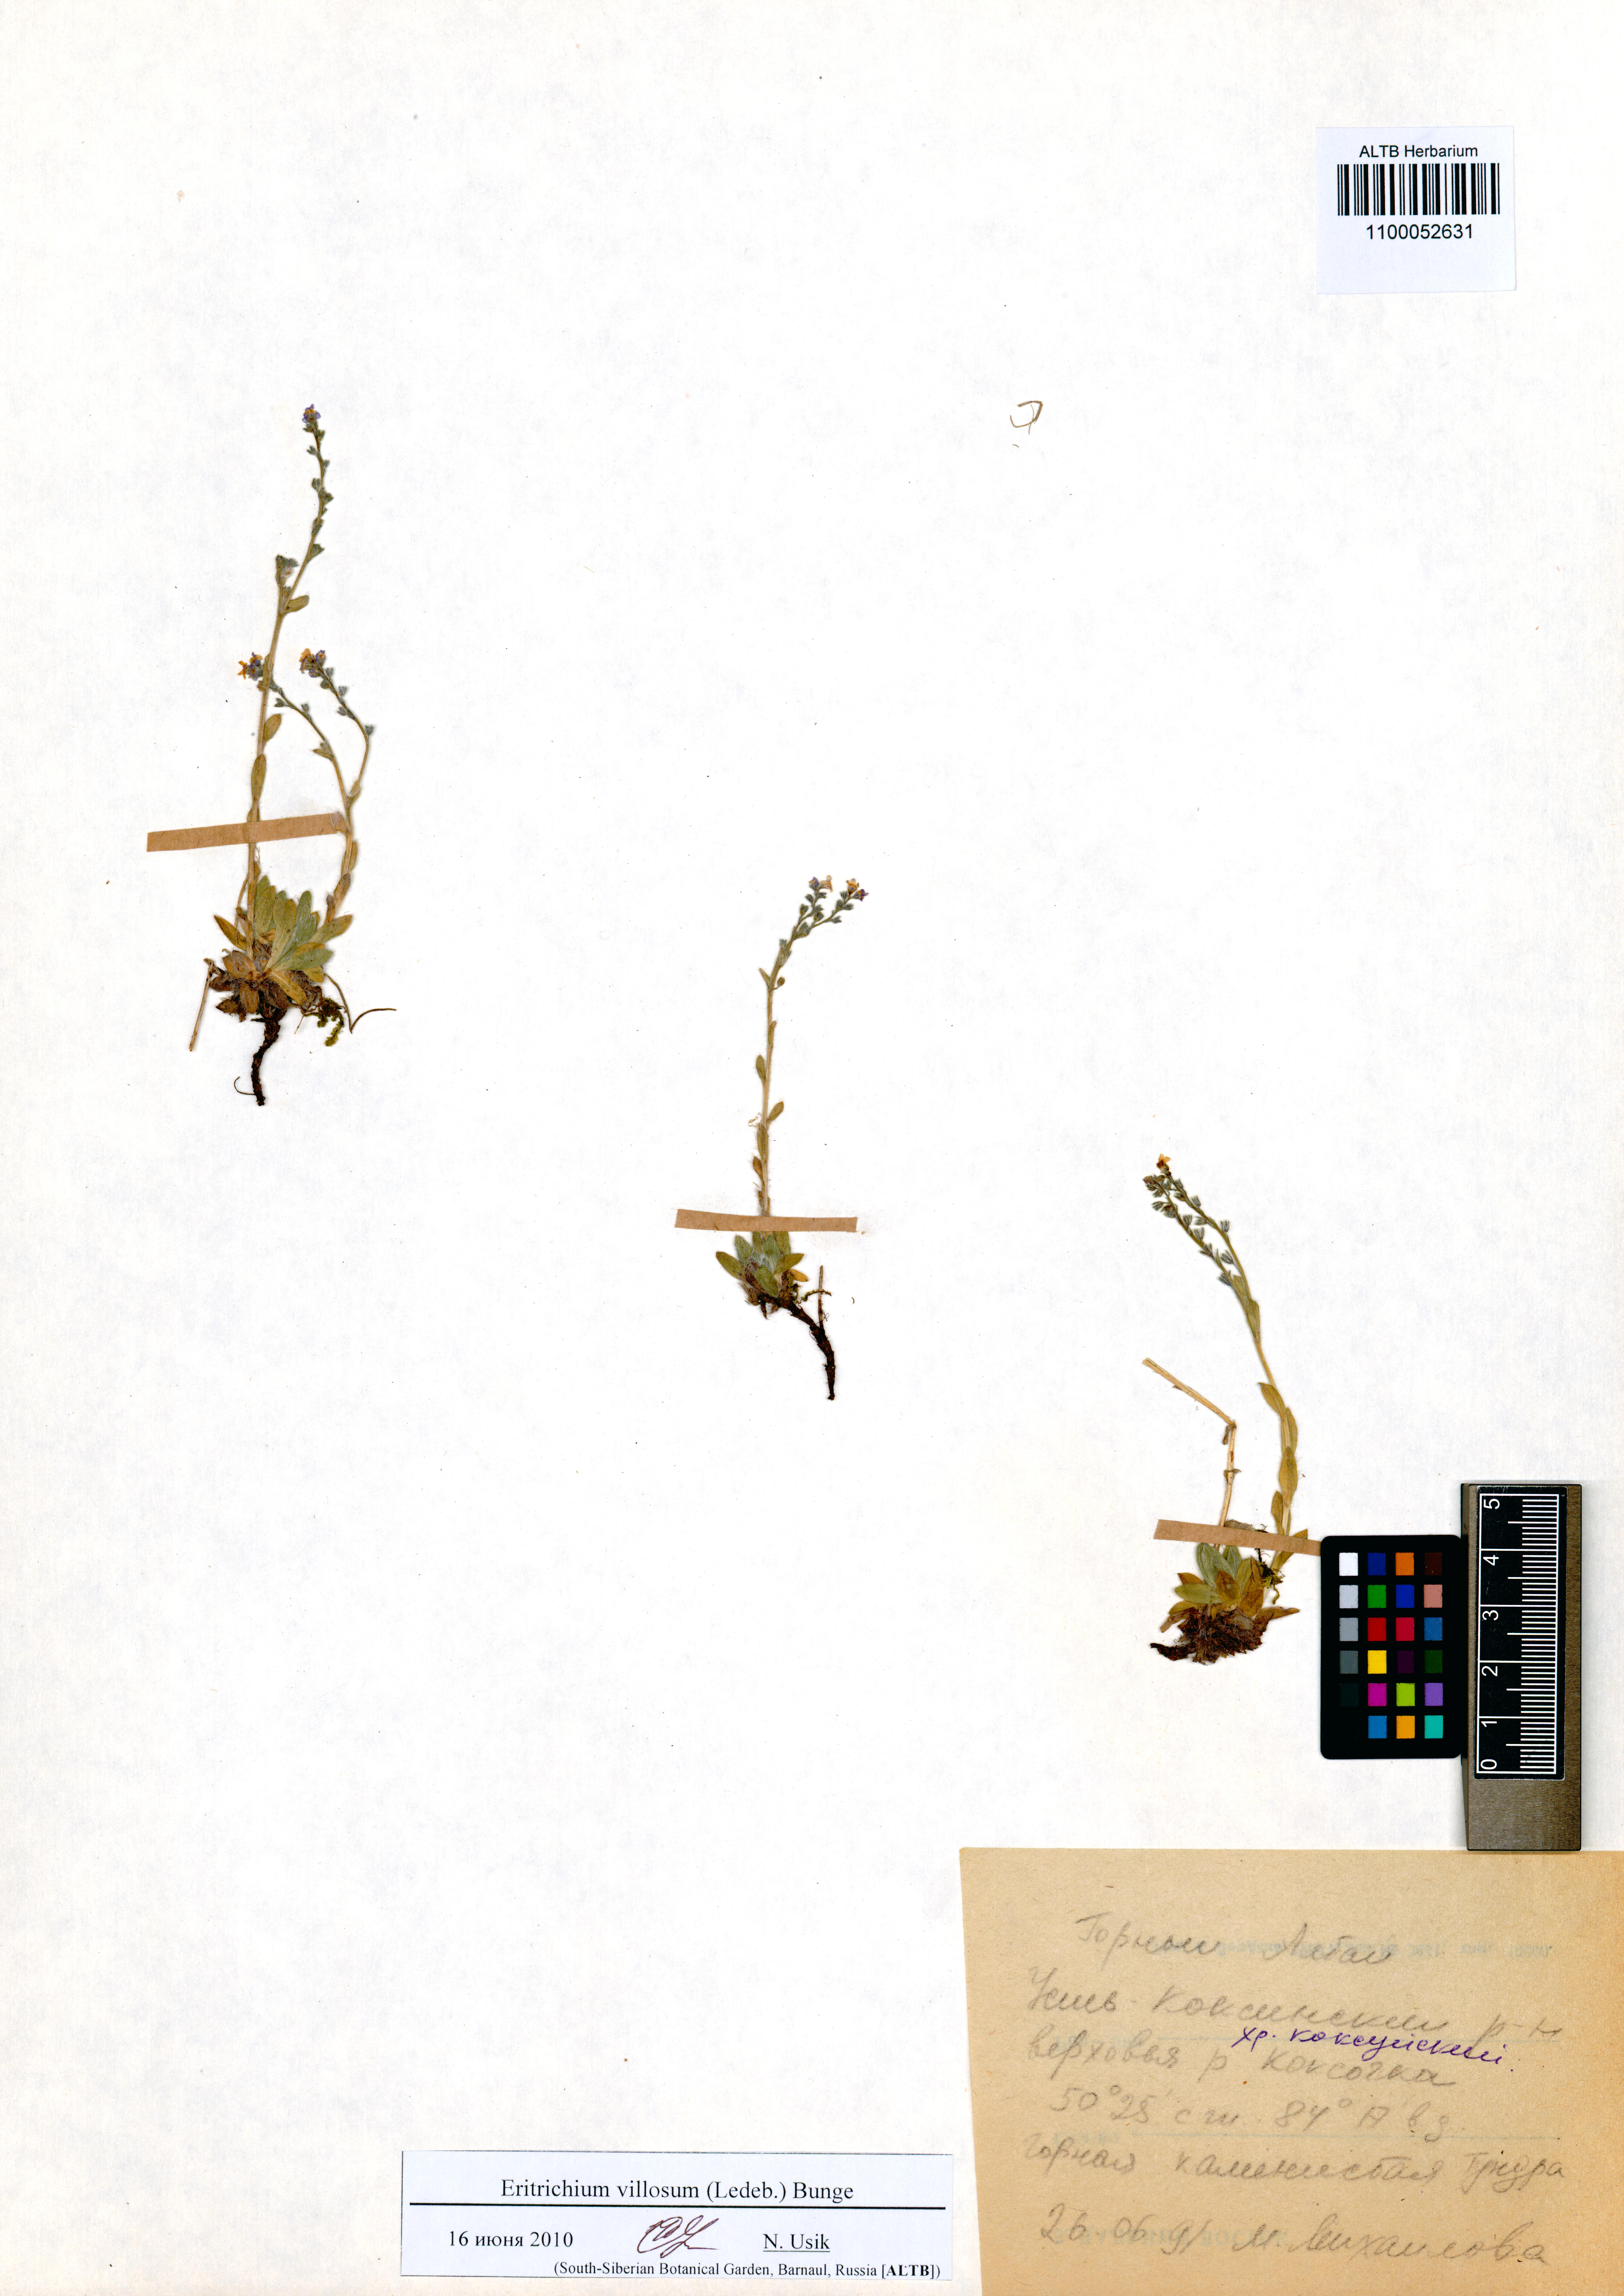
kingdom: Plantae
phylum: Tracheophyta
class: Magnoliopsida
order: Boraginales
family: Boraginaceae
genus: Eritrichium
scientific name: Eritrichium villosum
